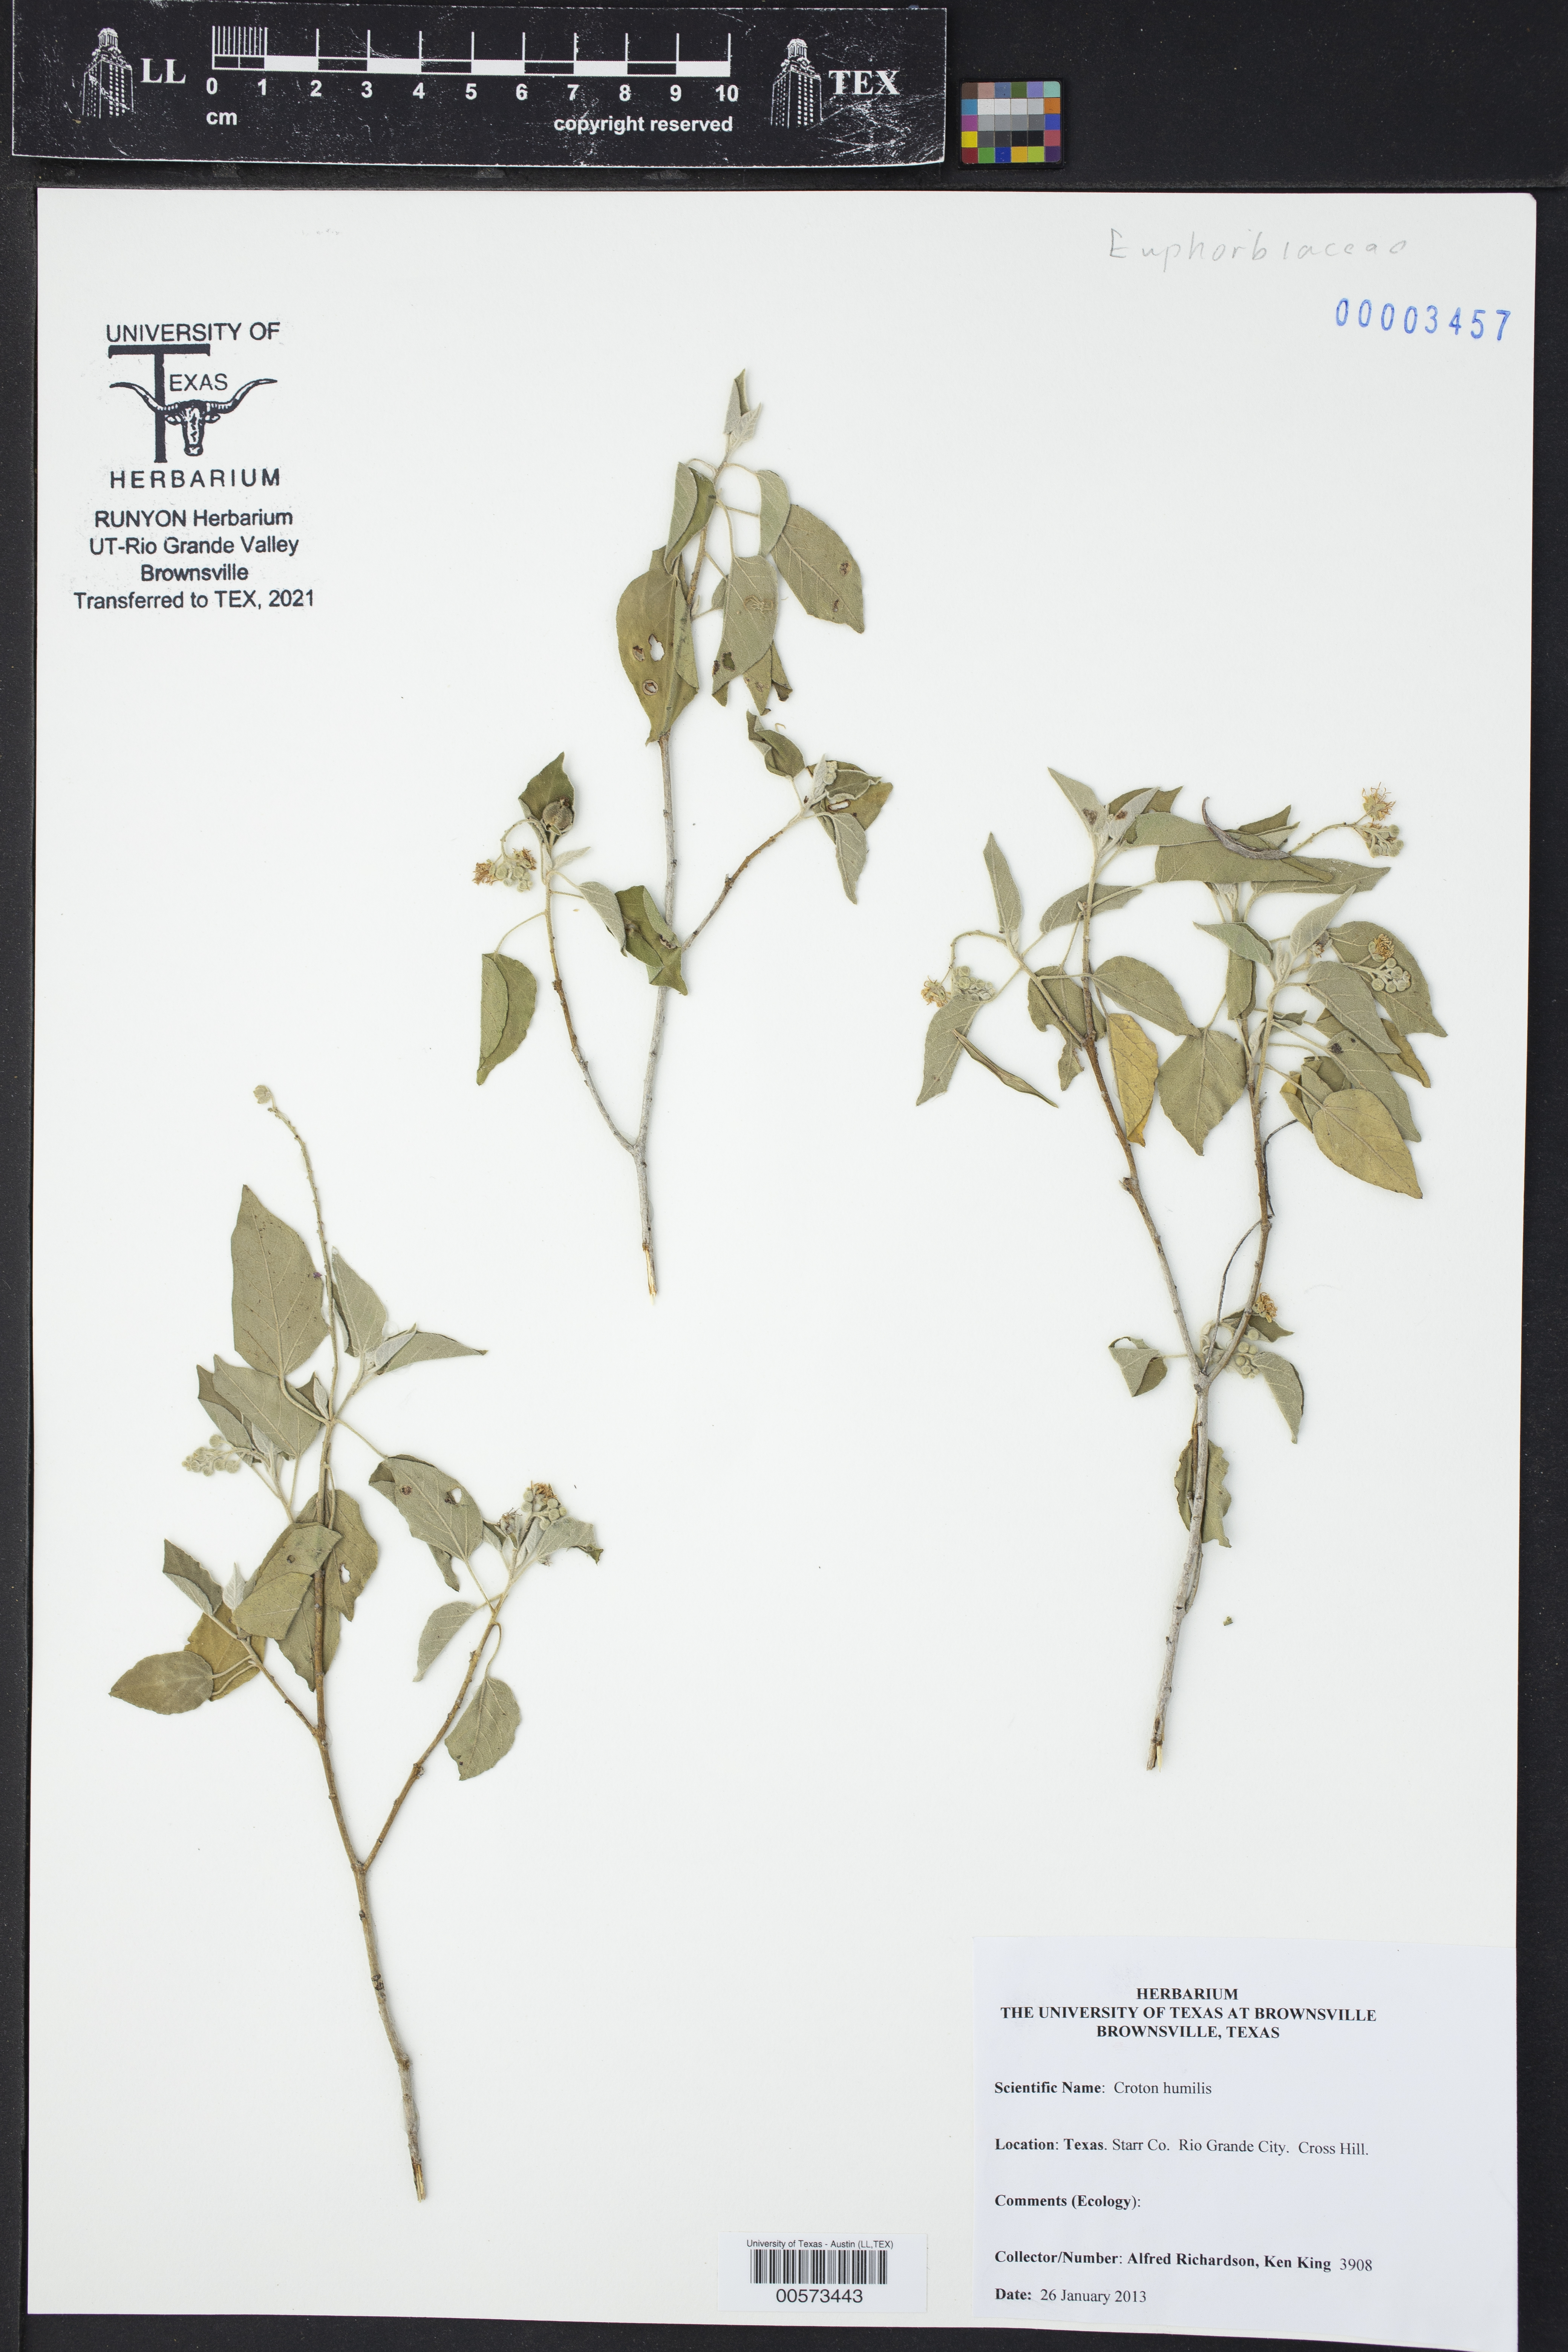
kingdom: Plantae
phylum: Tracheophyta
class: Magnoliopsida
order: Malpighiales
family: Euphorbiaceae
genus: Croton
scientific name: Croton humilis
